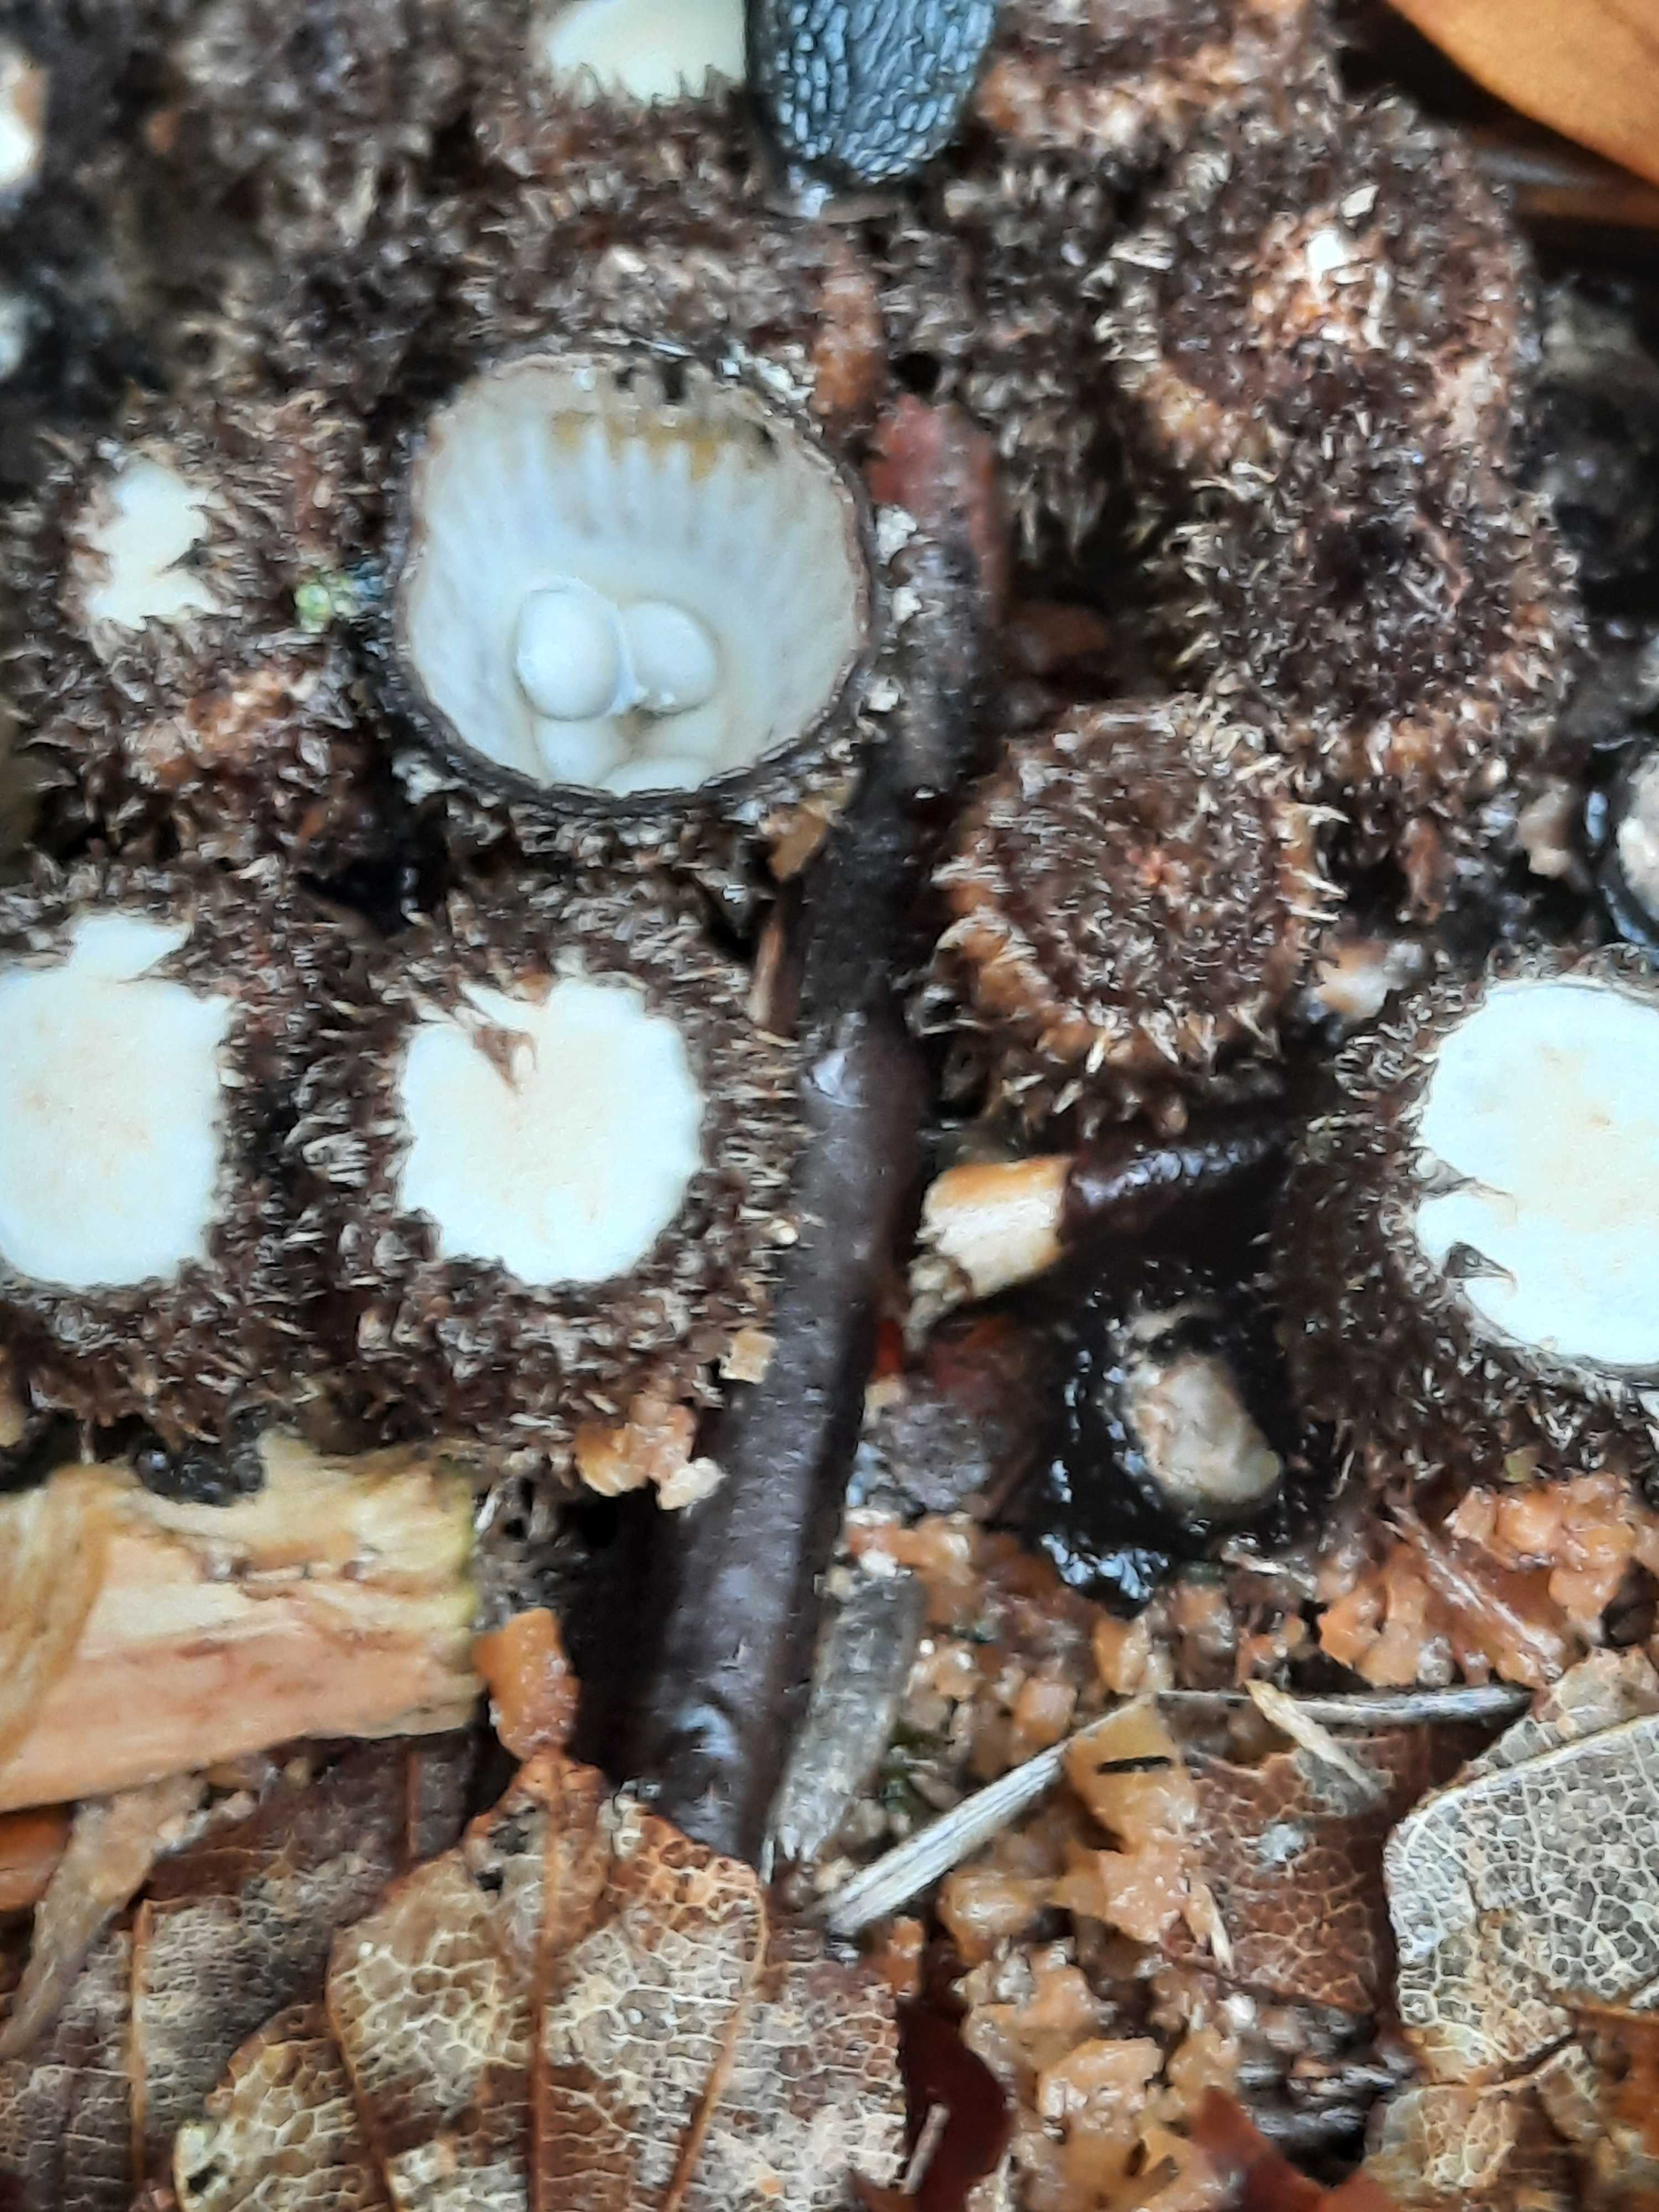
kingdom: Fungi
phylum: Basidiomycota
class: Agaricomycetes
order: Agaricales
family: Agaricaceae
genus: Cyathus
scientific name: Cyathus striatus
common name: stribet redesvamp
